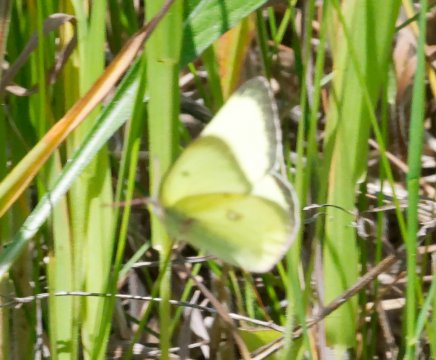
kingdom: Animalia
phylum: Arthropoda
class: Insecta
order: Lepidoptera
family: Pieridae
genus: Colias
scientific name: Colias philodice
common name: Clouded Sulphur
